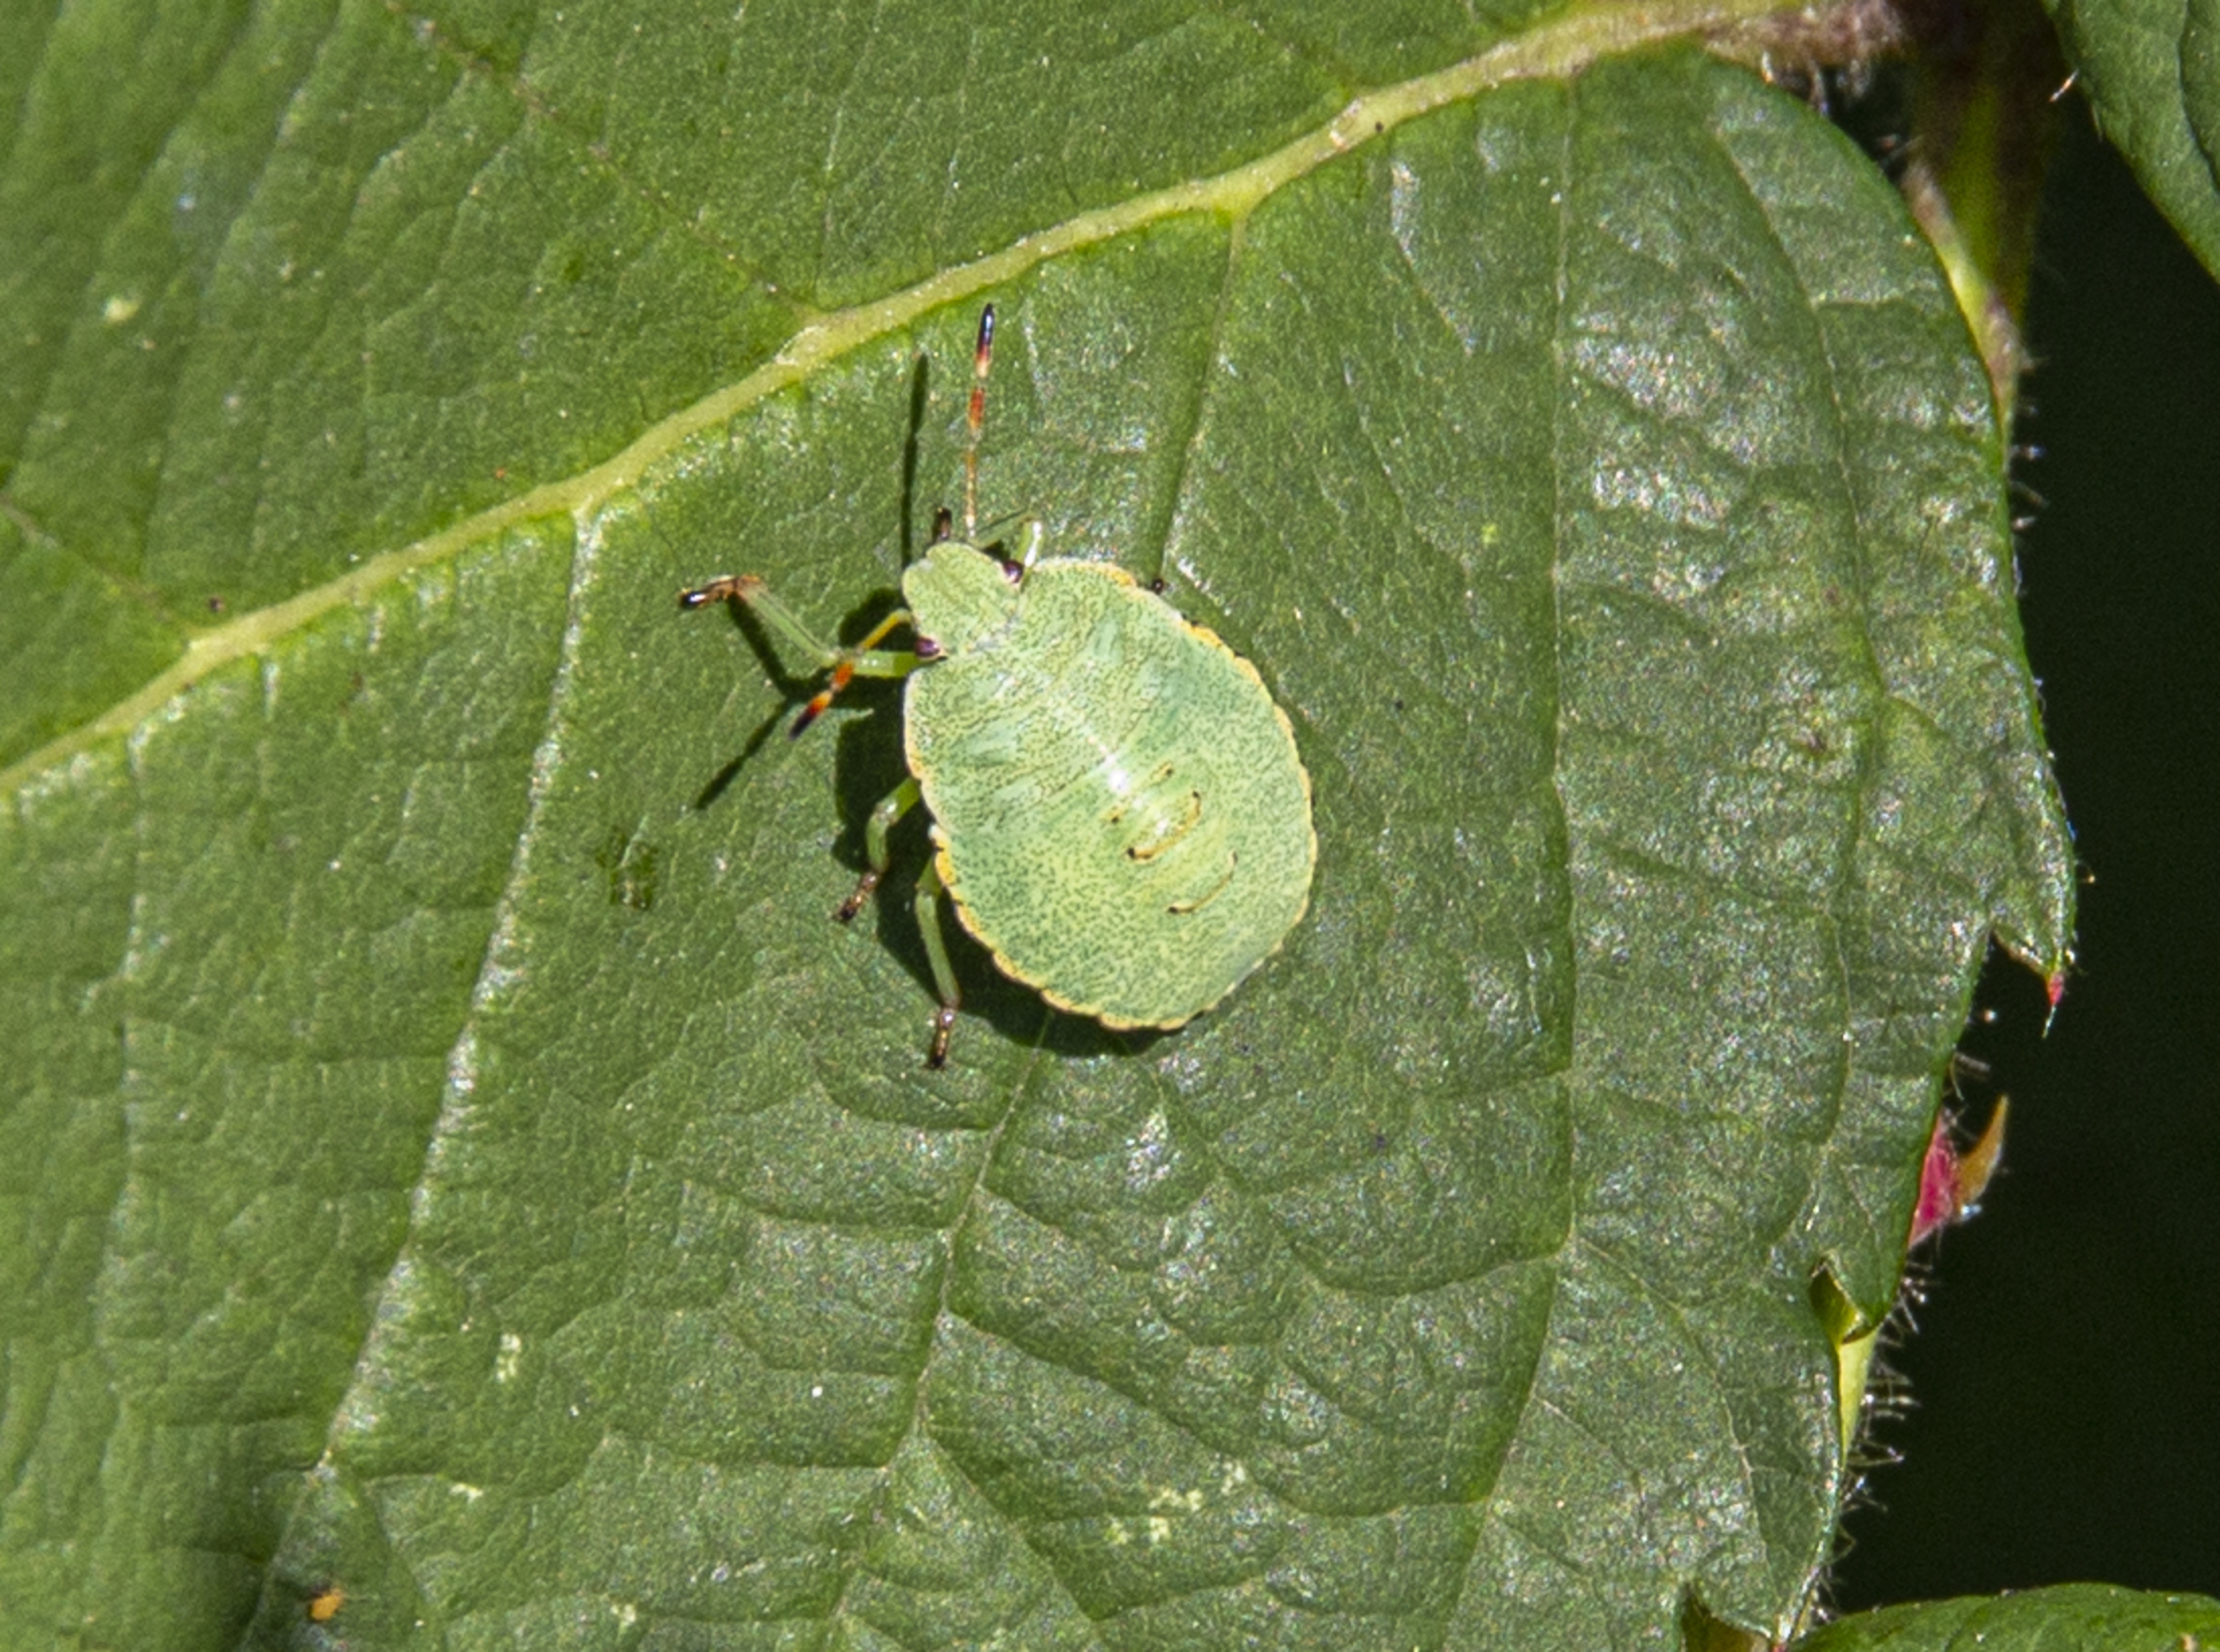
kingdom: Animalia
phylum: Arthropoda
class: Insecta
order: Hemiptera
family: Pentatomidae
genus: Palomena
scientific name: Palomena prasina
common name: Grøn bredtæge
